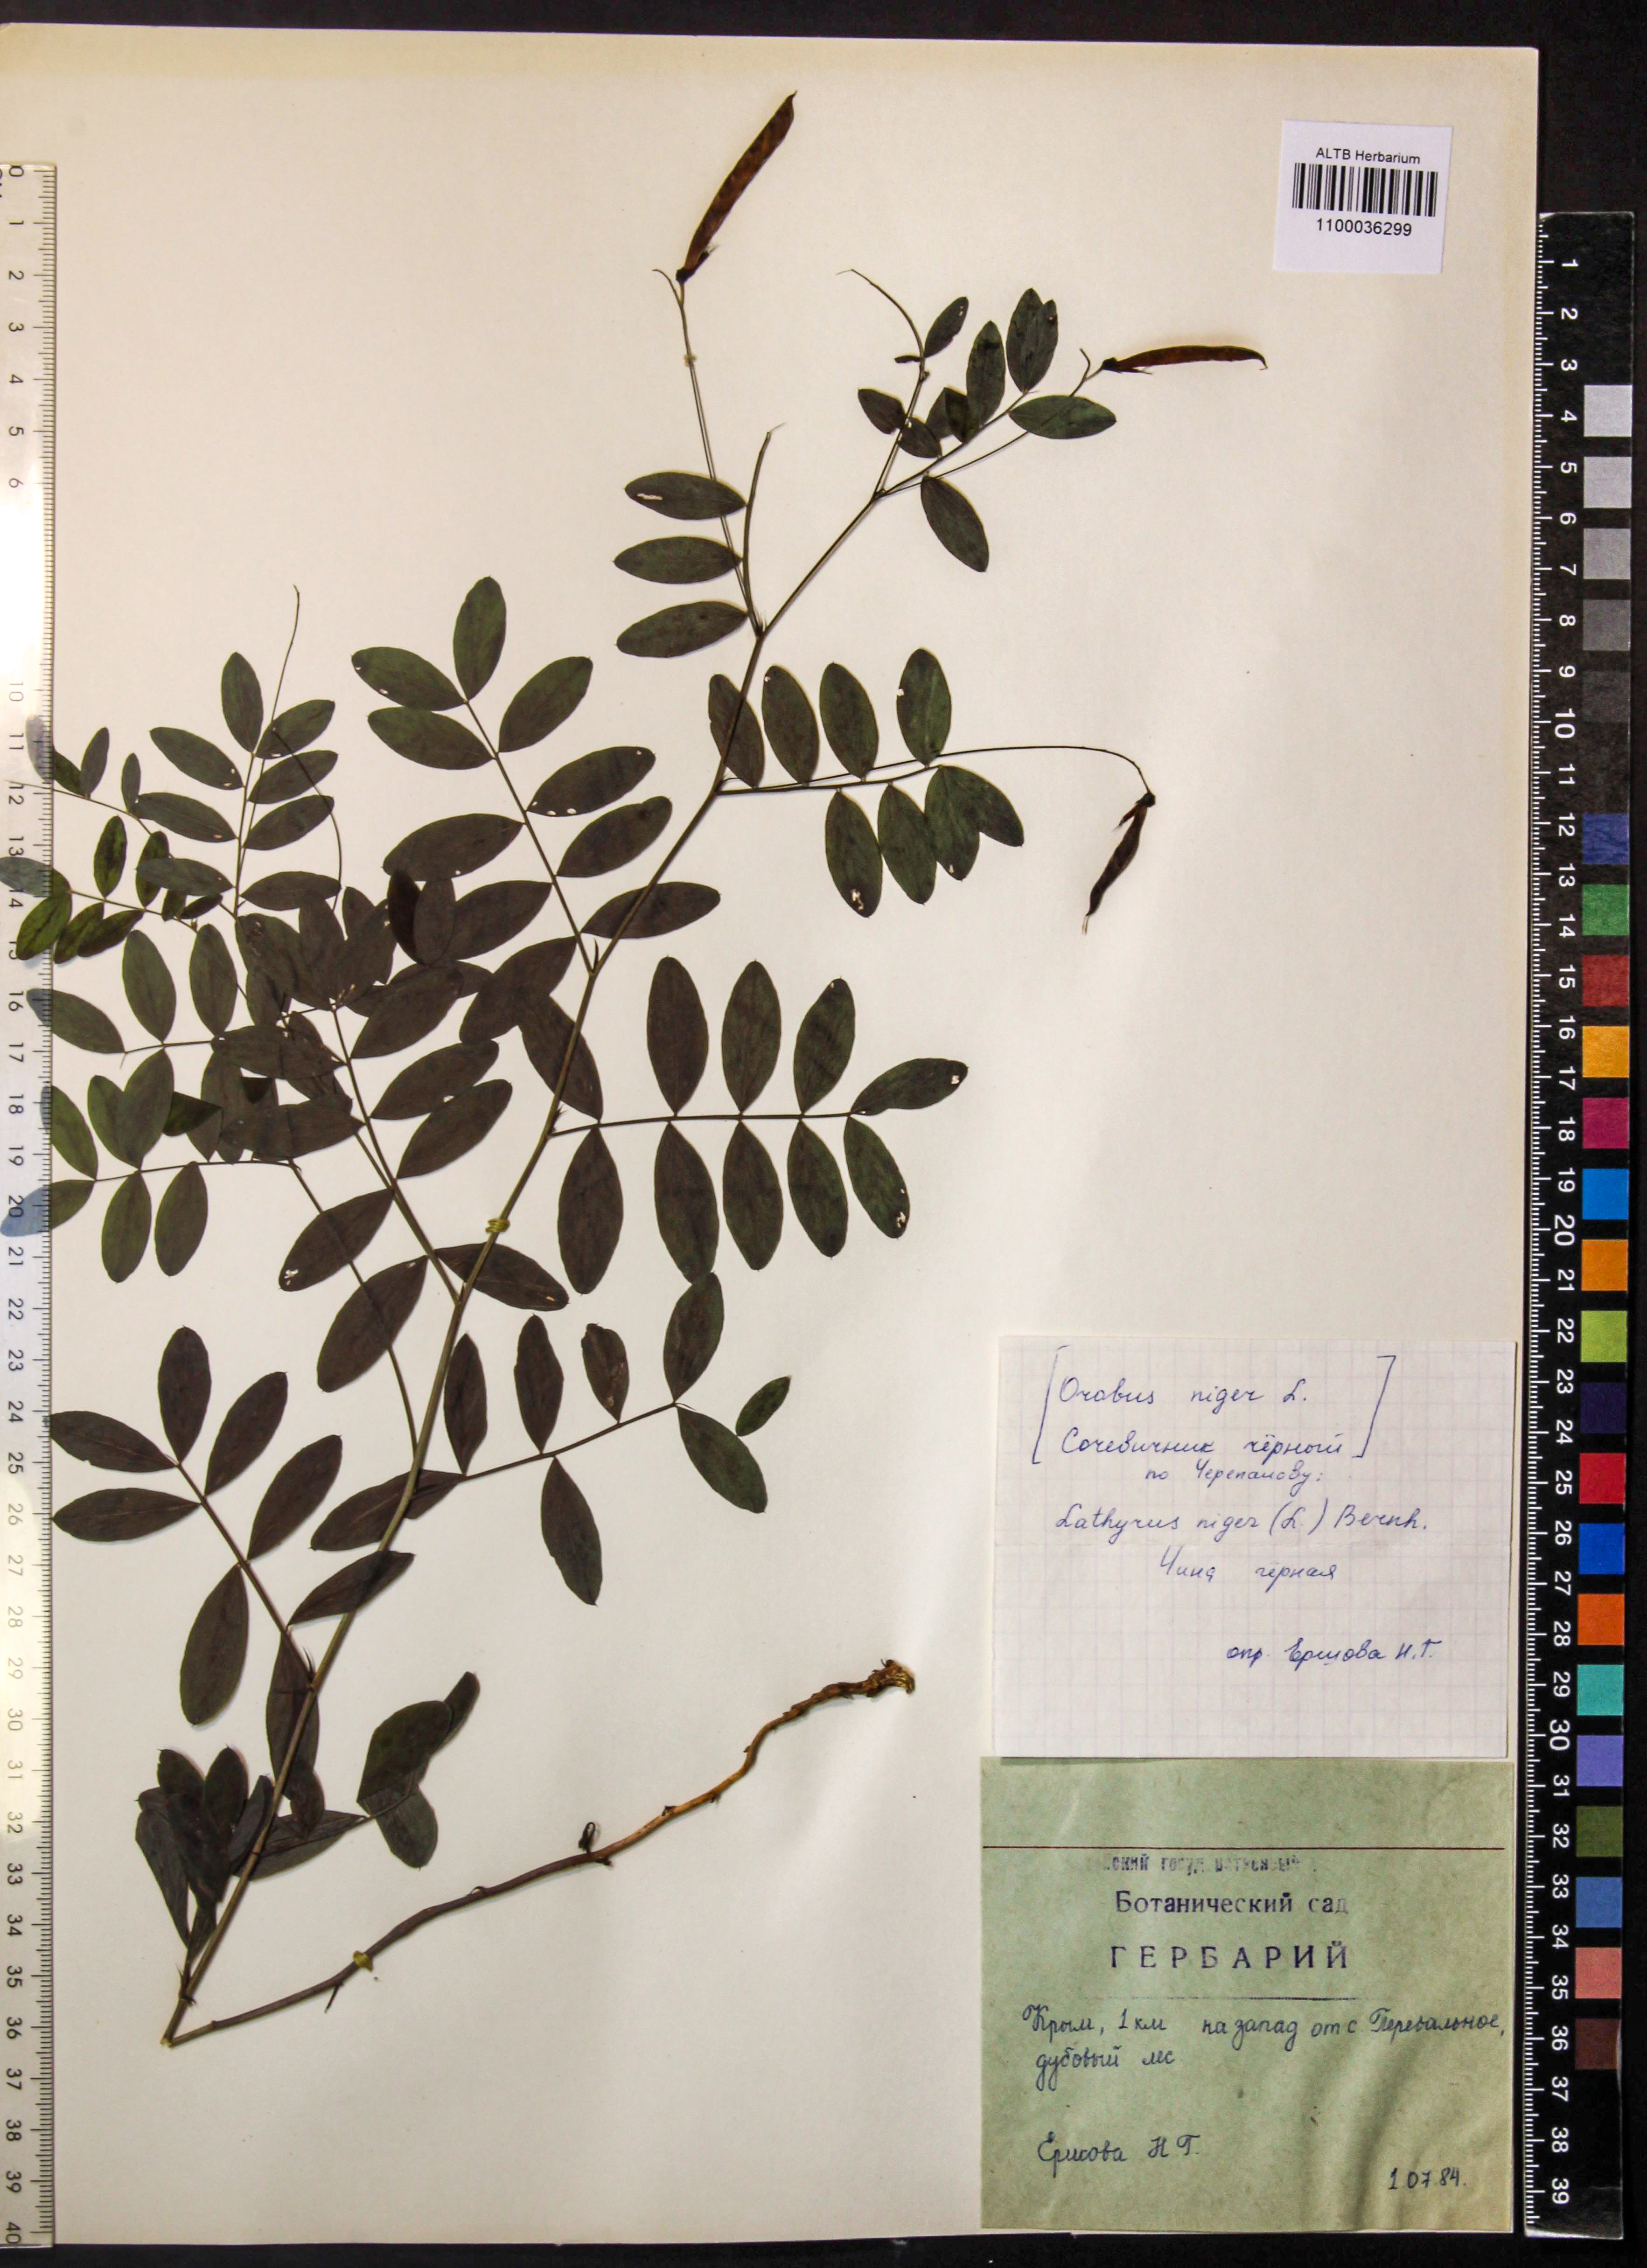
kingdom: Plantae
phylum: Tracheophyta
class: Magnoliopsida
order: Fabales
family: Fabaceae
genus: Lathyrus
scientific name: Lathyrus niger
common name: Black pea
